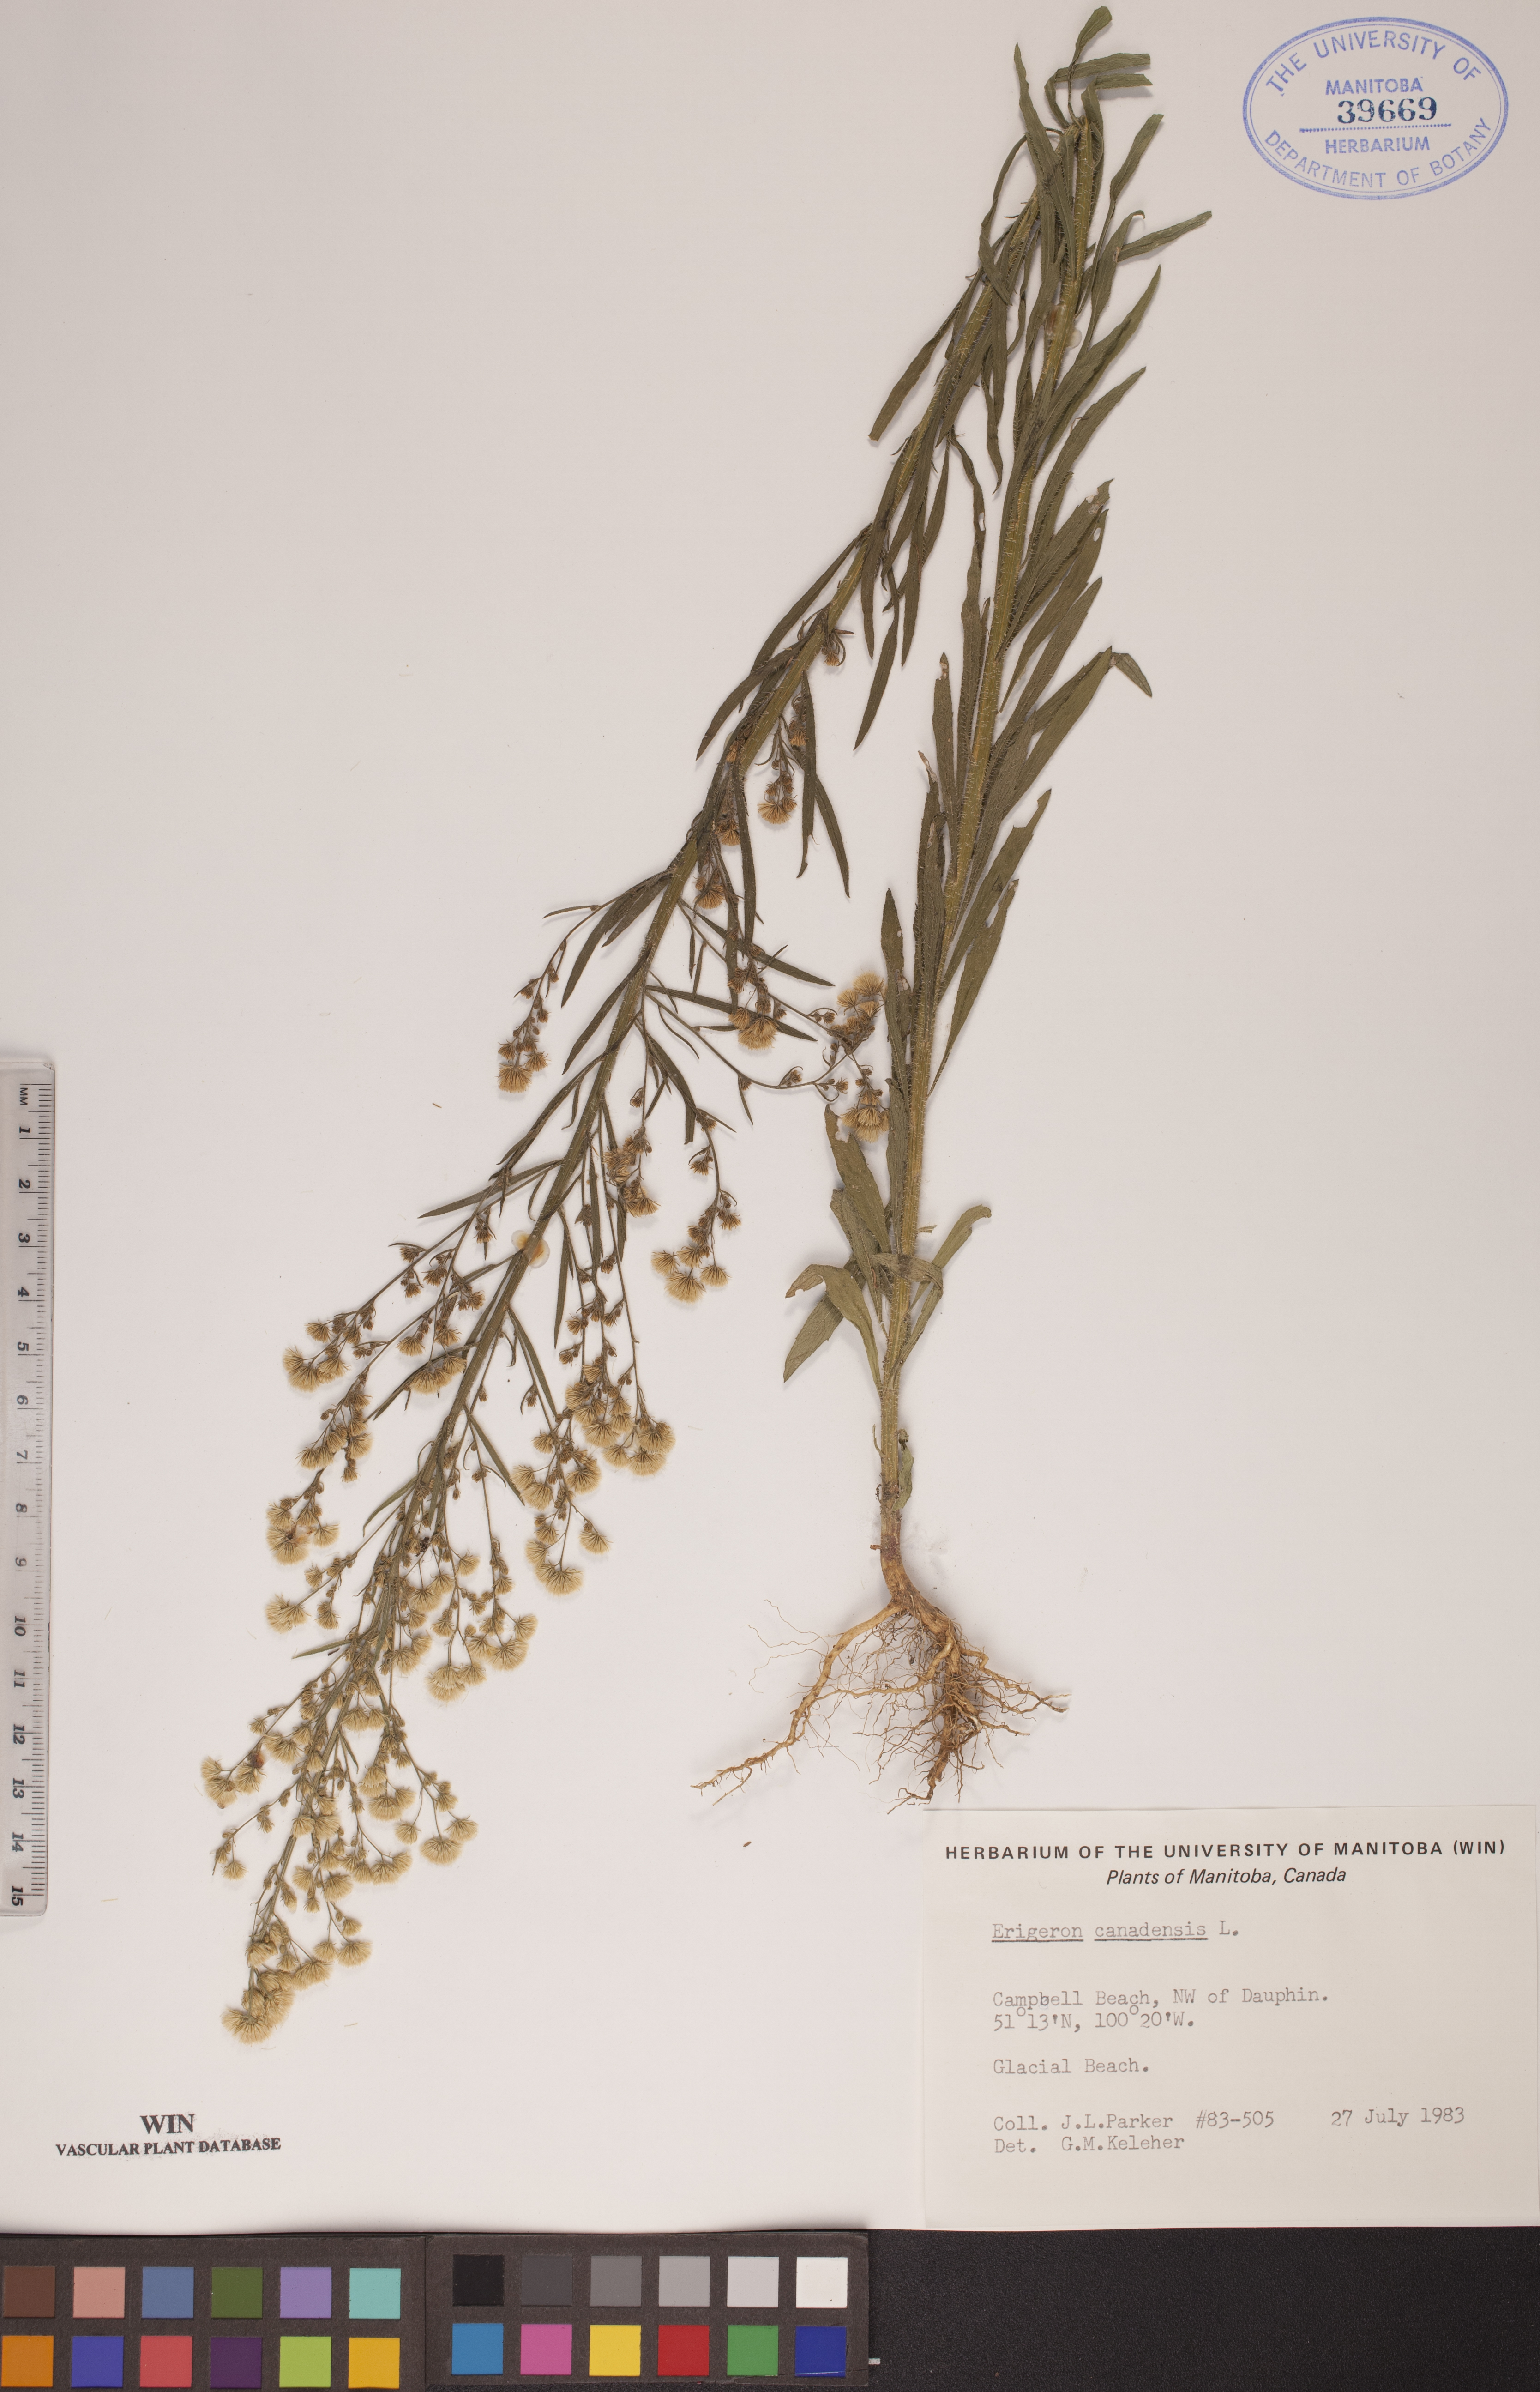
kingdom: Plantae
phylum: Tracheophyta
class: Magnoliopsida
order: Asterales
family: Asteraceae
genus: Erigeron
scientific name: Erigeron canadensis
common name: Canadian fleabane
